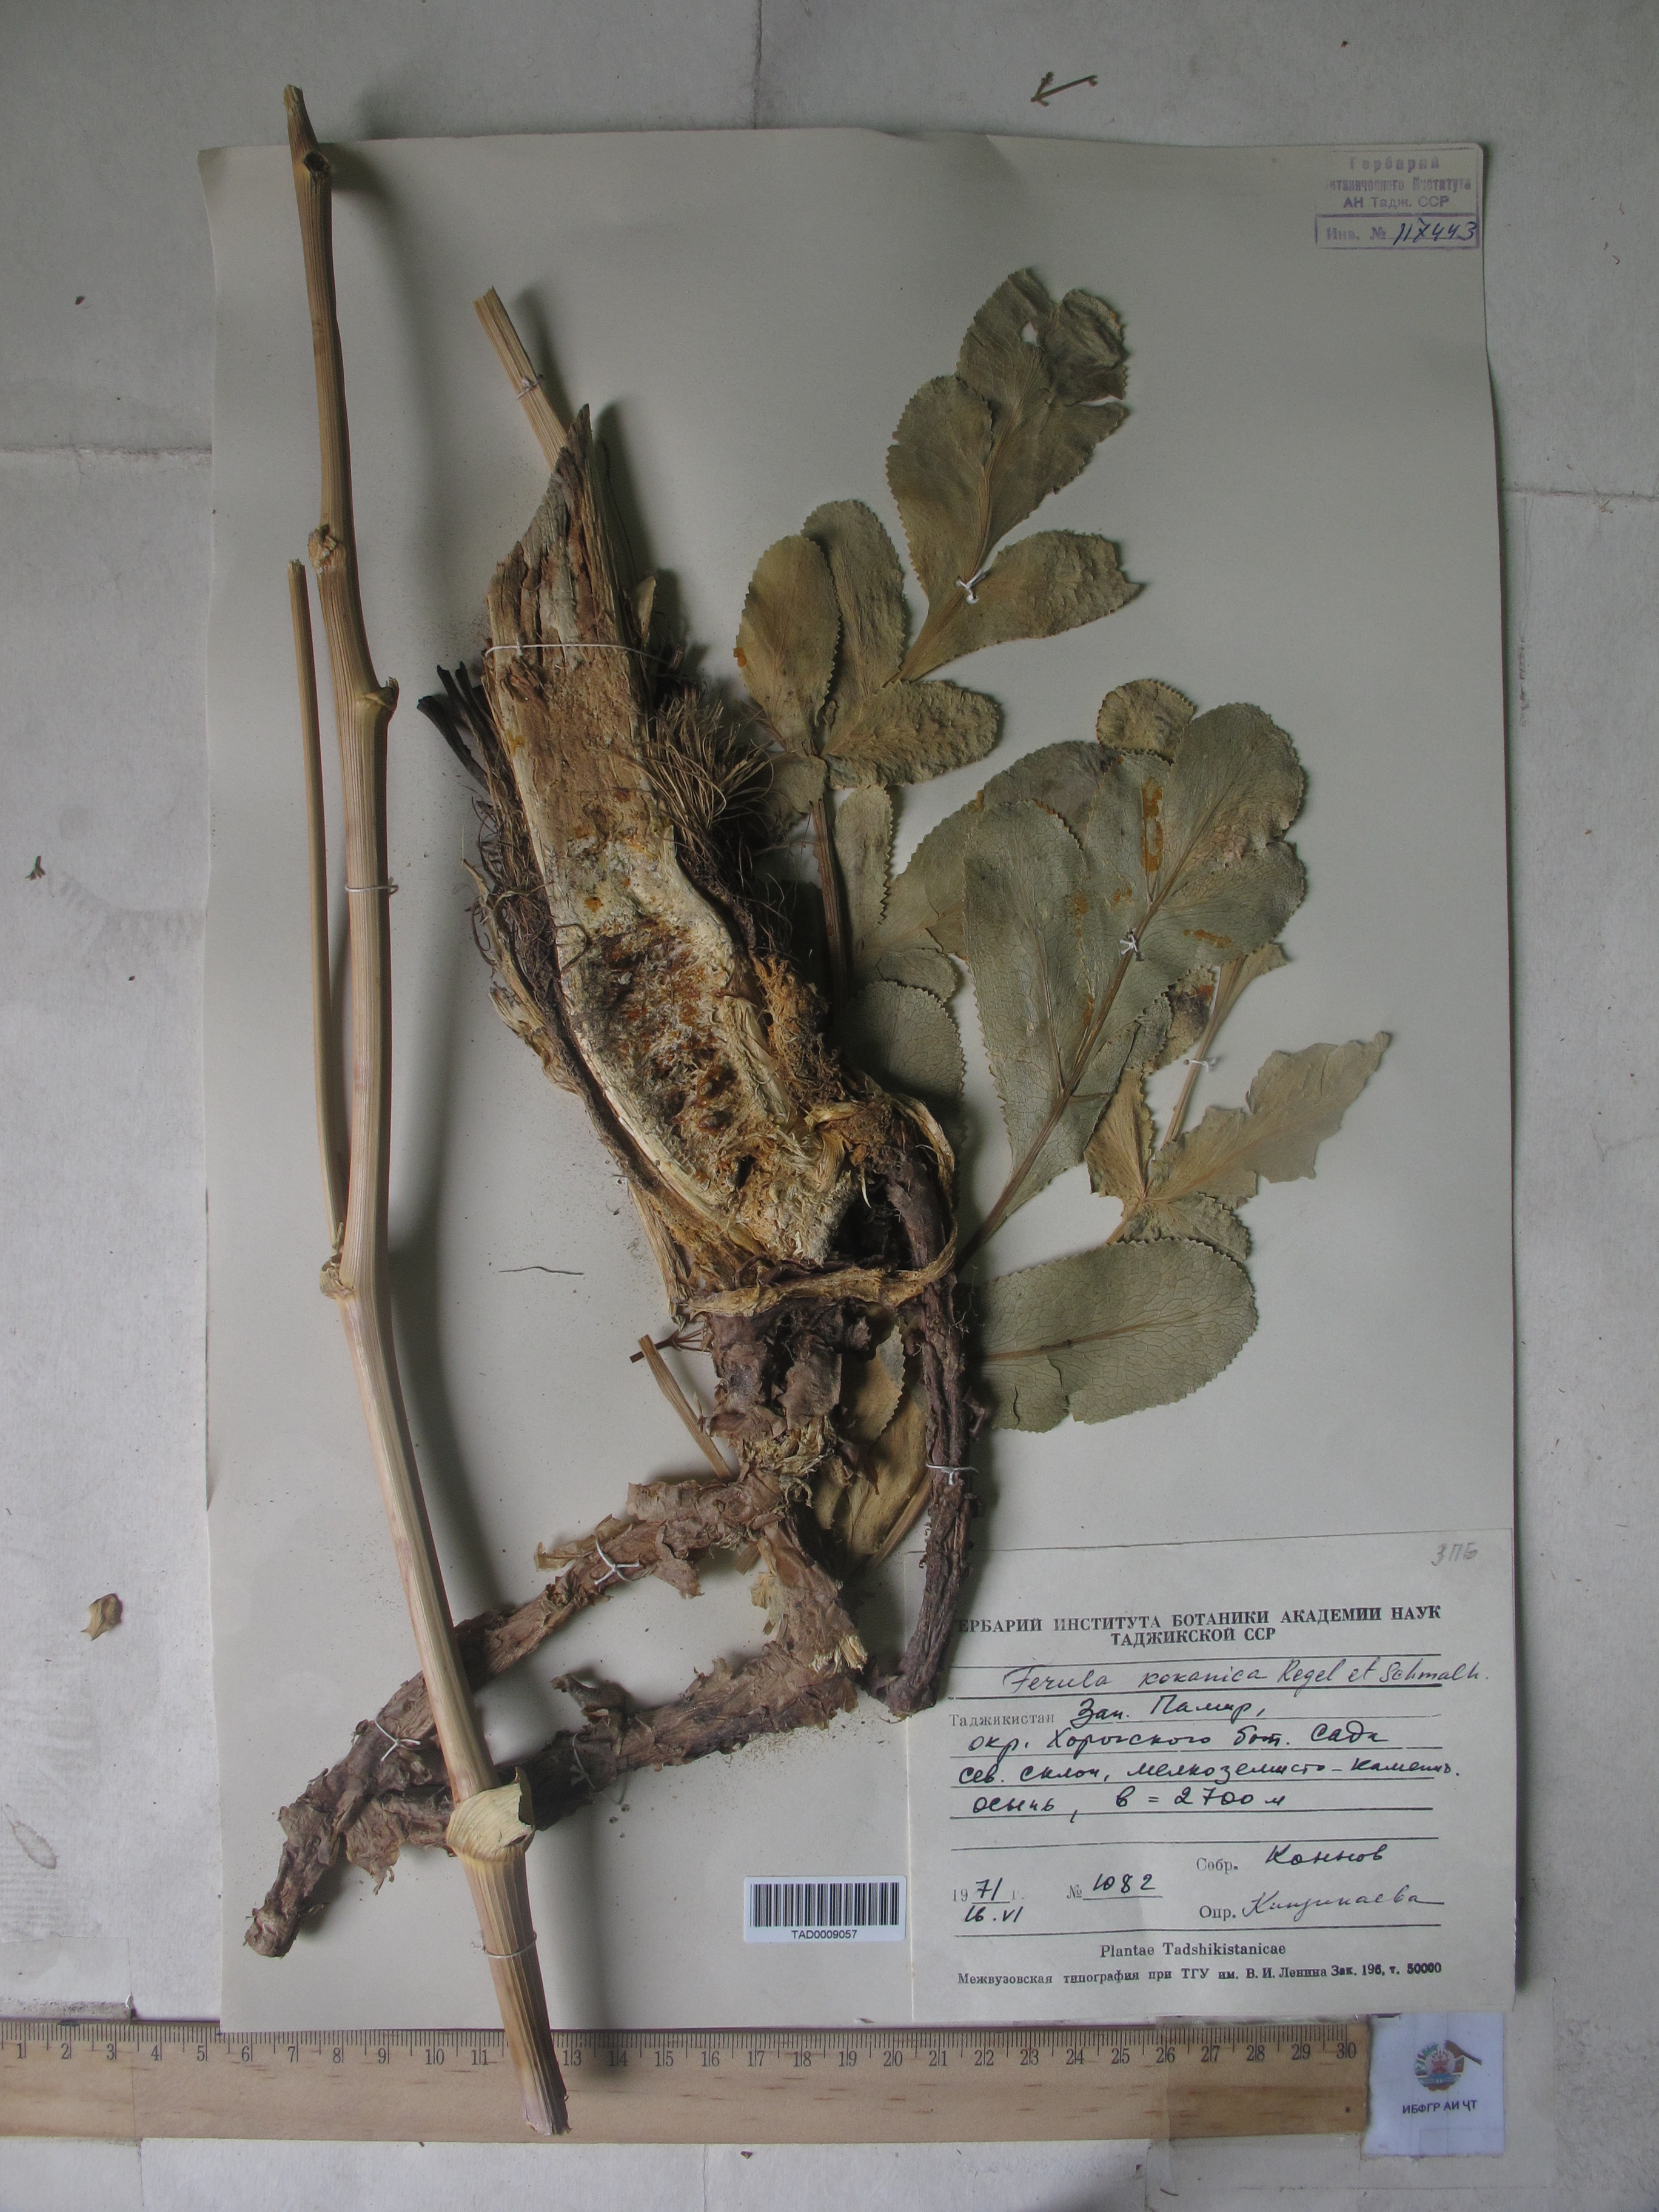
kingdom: Plantae
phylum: Tracheophyta
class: Magnoliopsida
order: Apiales
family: Apiaceae
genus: Ferula
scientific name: Ferula kokanica
